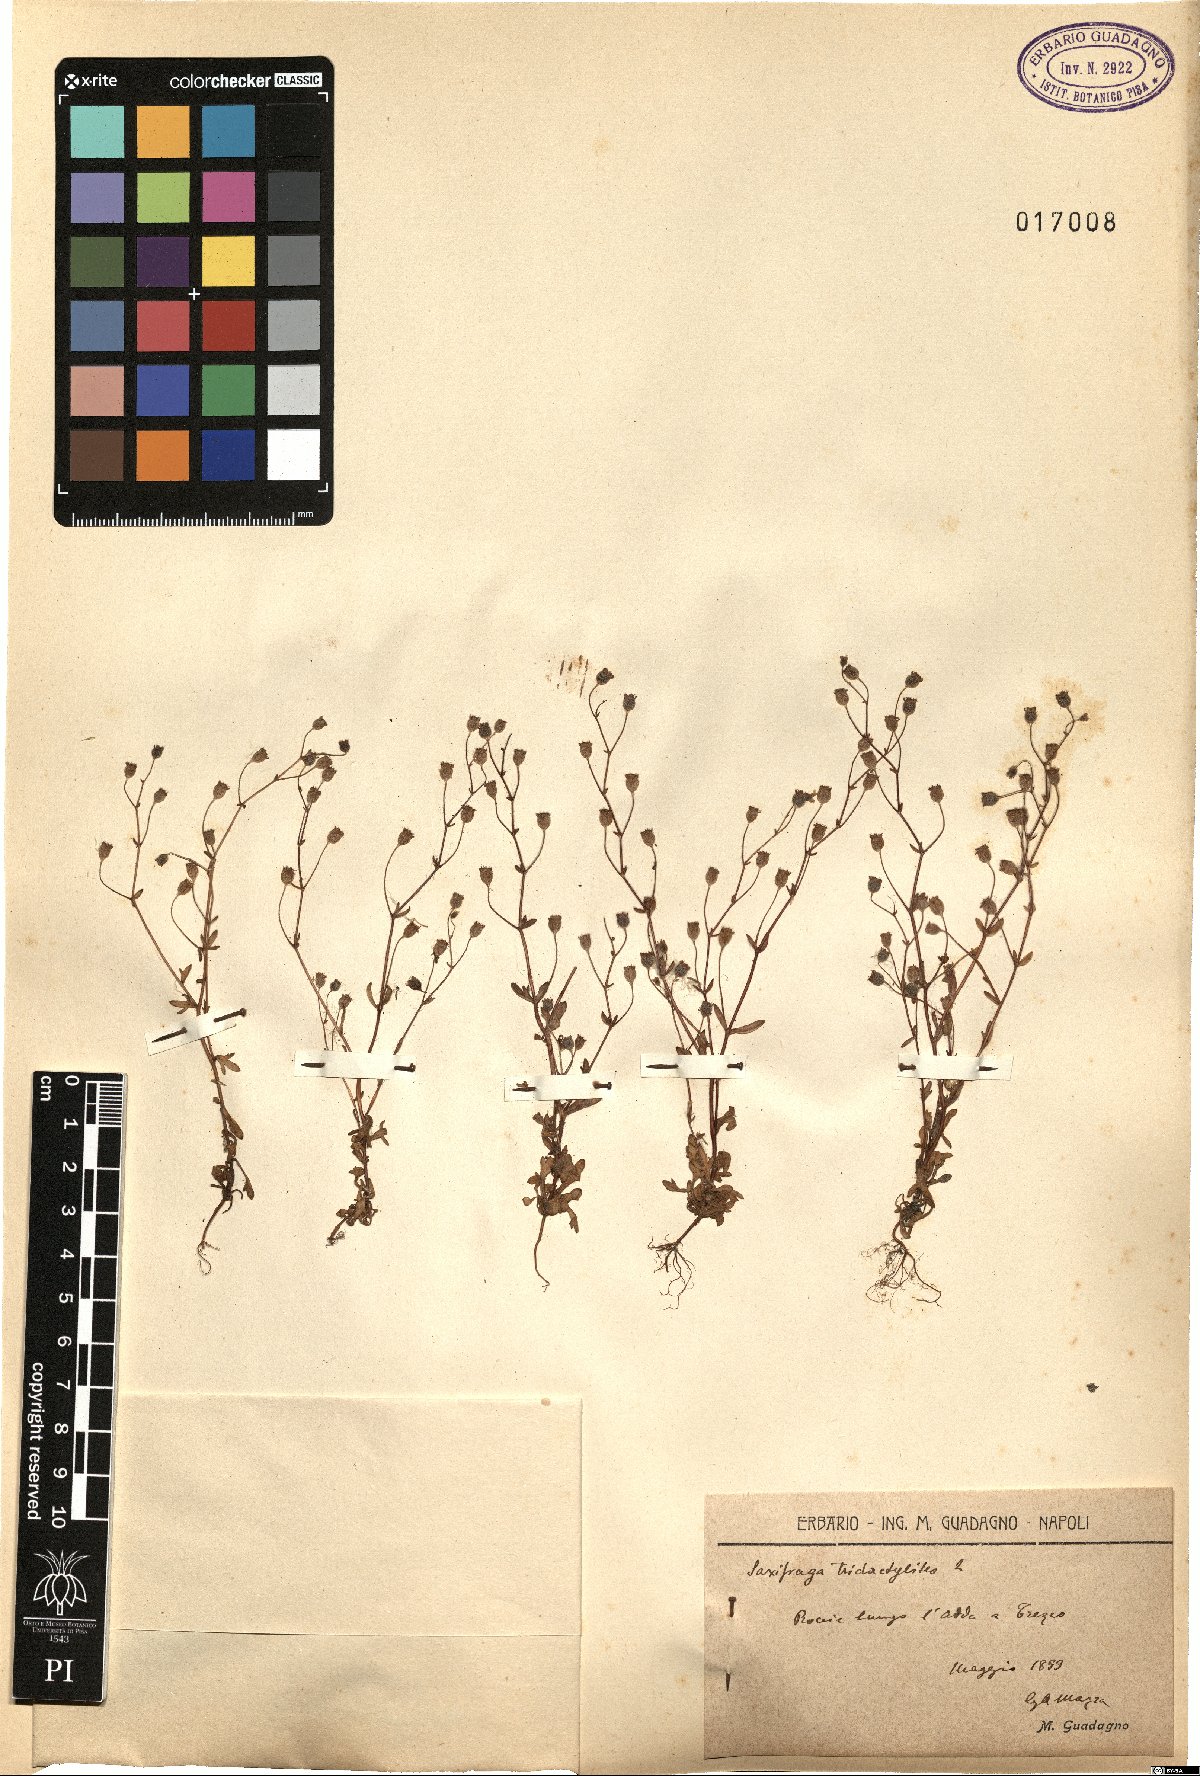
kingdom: Plantae
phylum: Tracheophyta
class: Magnoliopsida
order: Saxifragales
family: Saxifragaceae
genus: Saxifraga
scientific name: Saxifraga tridactylites
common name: Rue-leaved saxifrage
